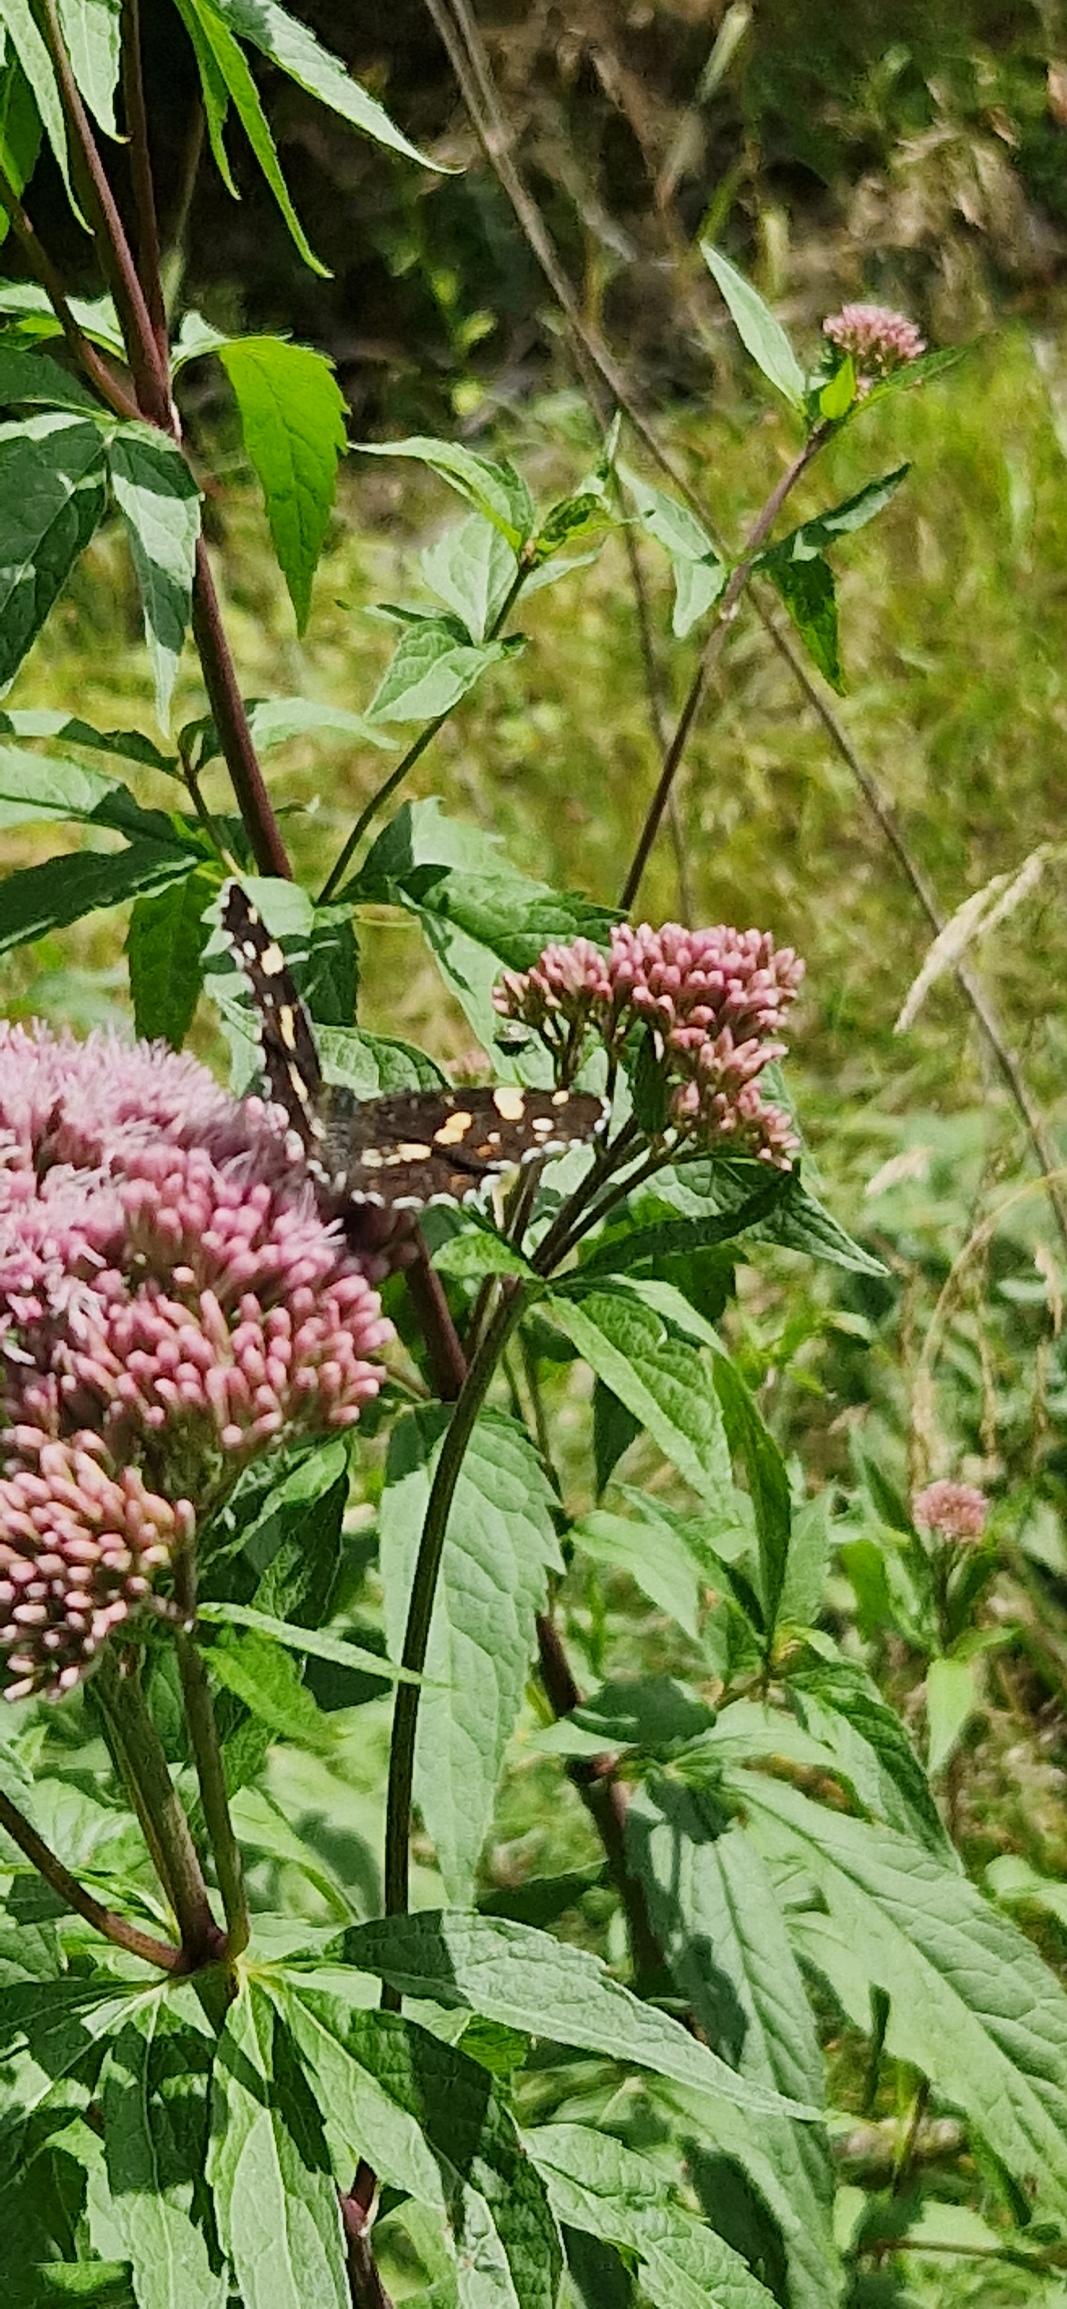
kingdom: Animalia
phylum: Arthropoda
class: Insecta
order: Lepidoptera
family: Nymphalidae
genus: Araschnia
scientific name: Araschnia levana
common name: Nældesommerfugl
